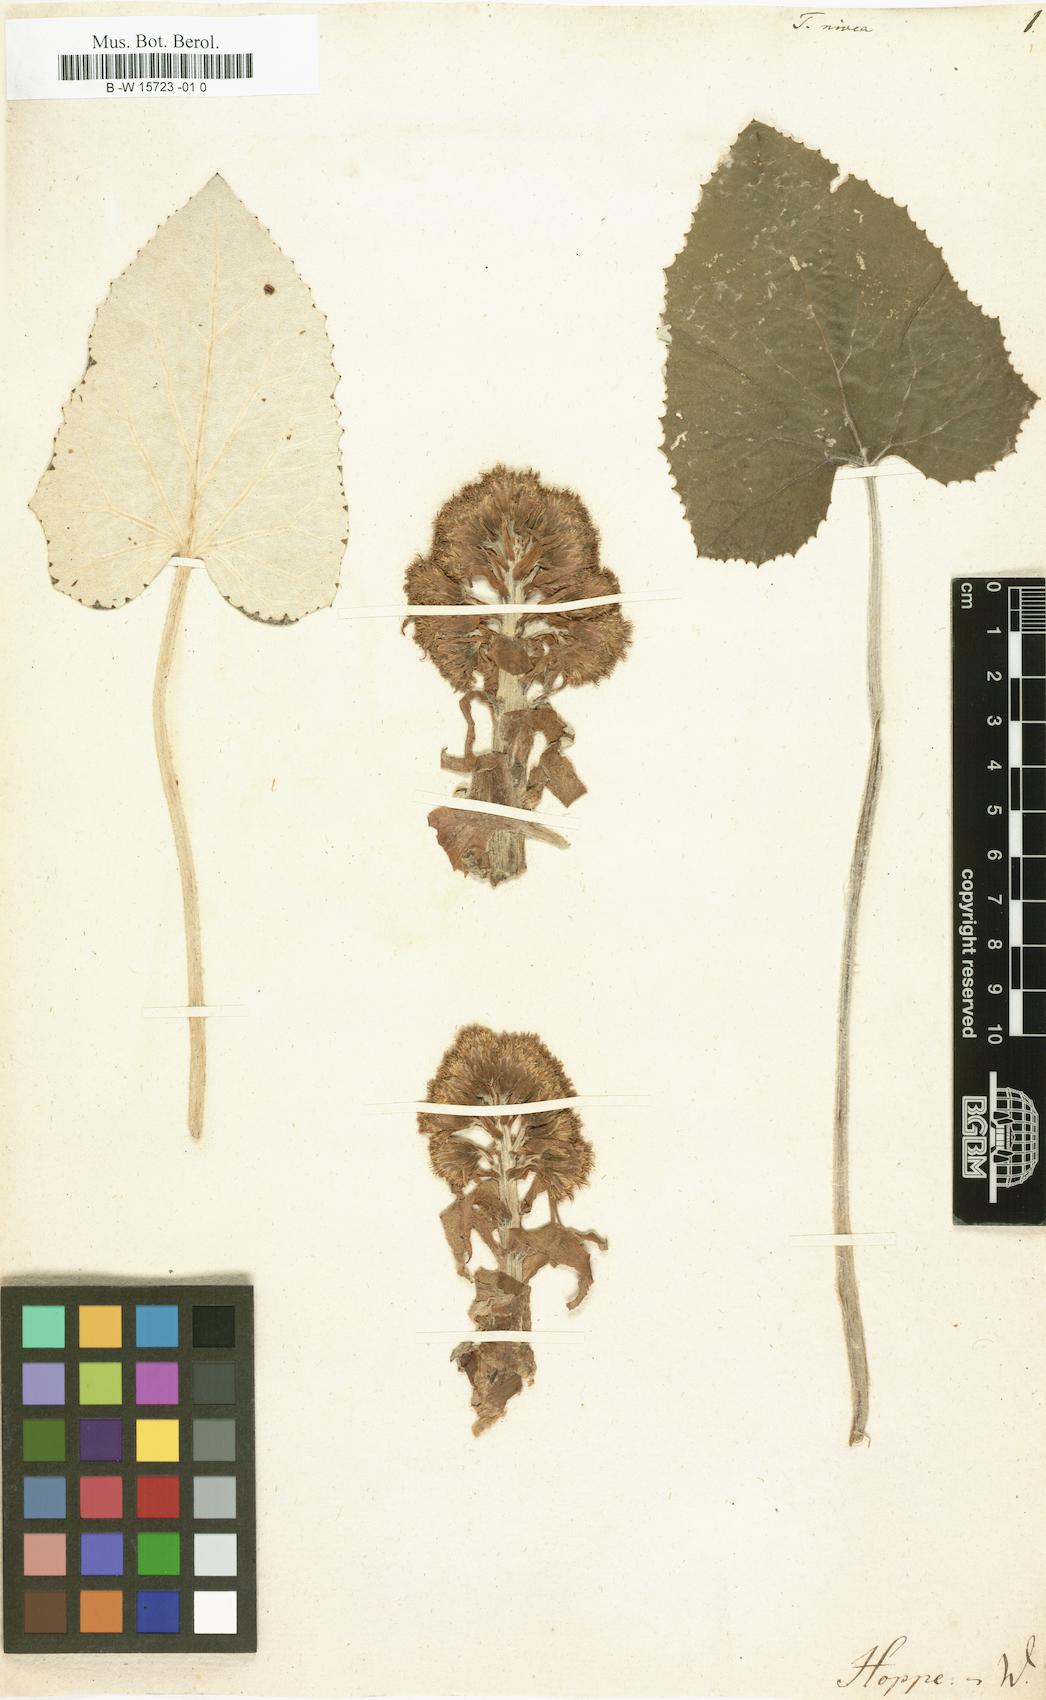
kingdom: Plantae
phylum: Tracheophyta
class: Magnoliopsida
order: Asterales
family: Asteraceae
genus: Petasites
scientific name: Petasites paradoxus
